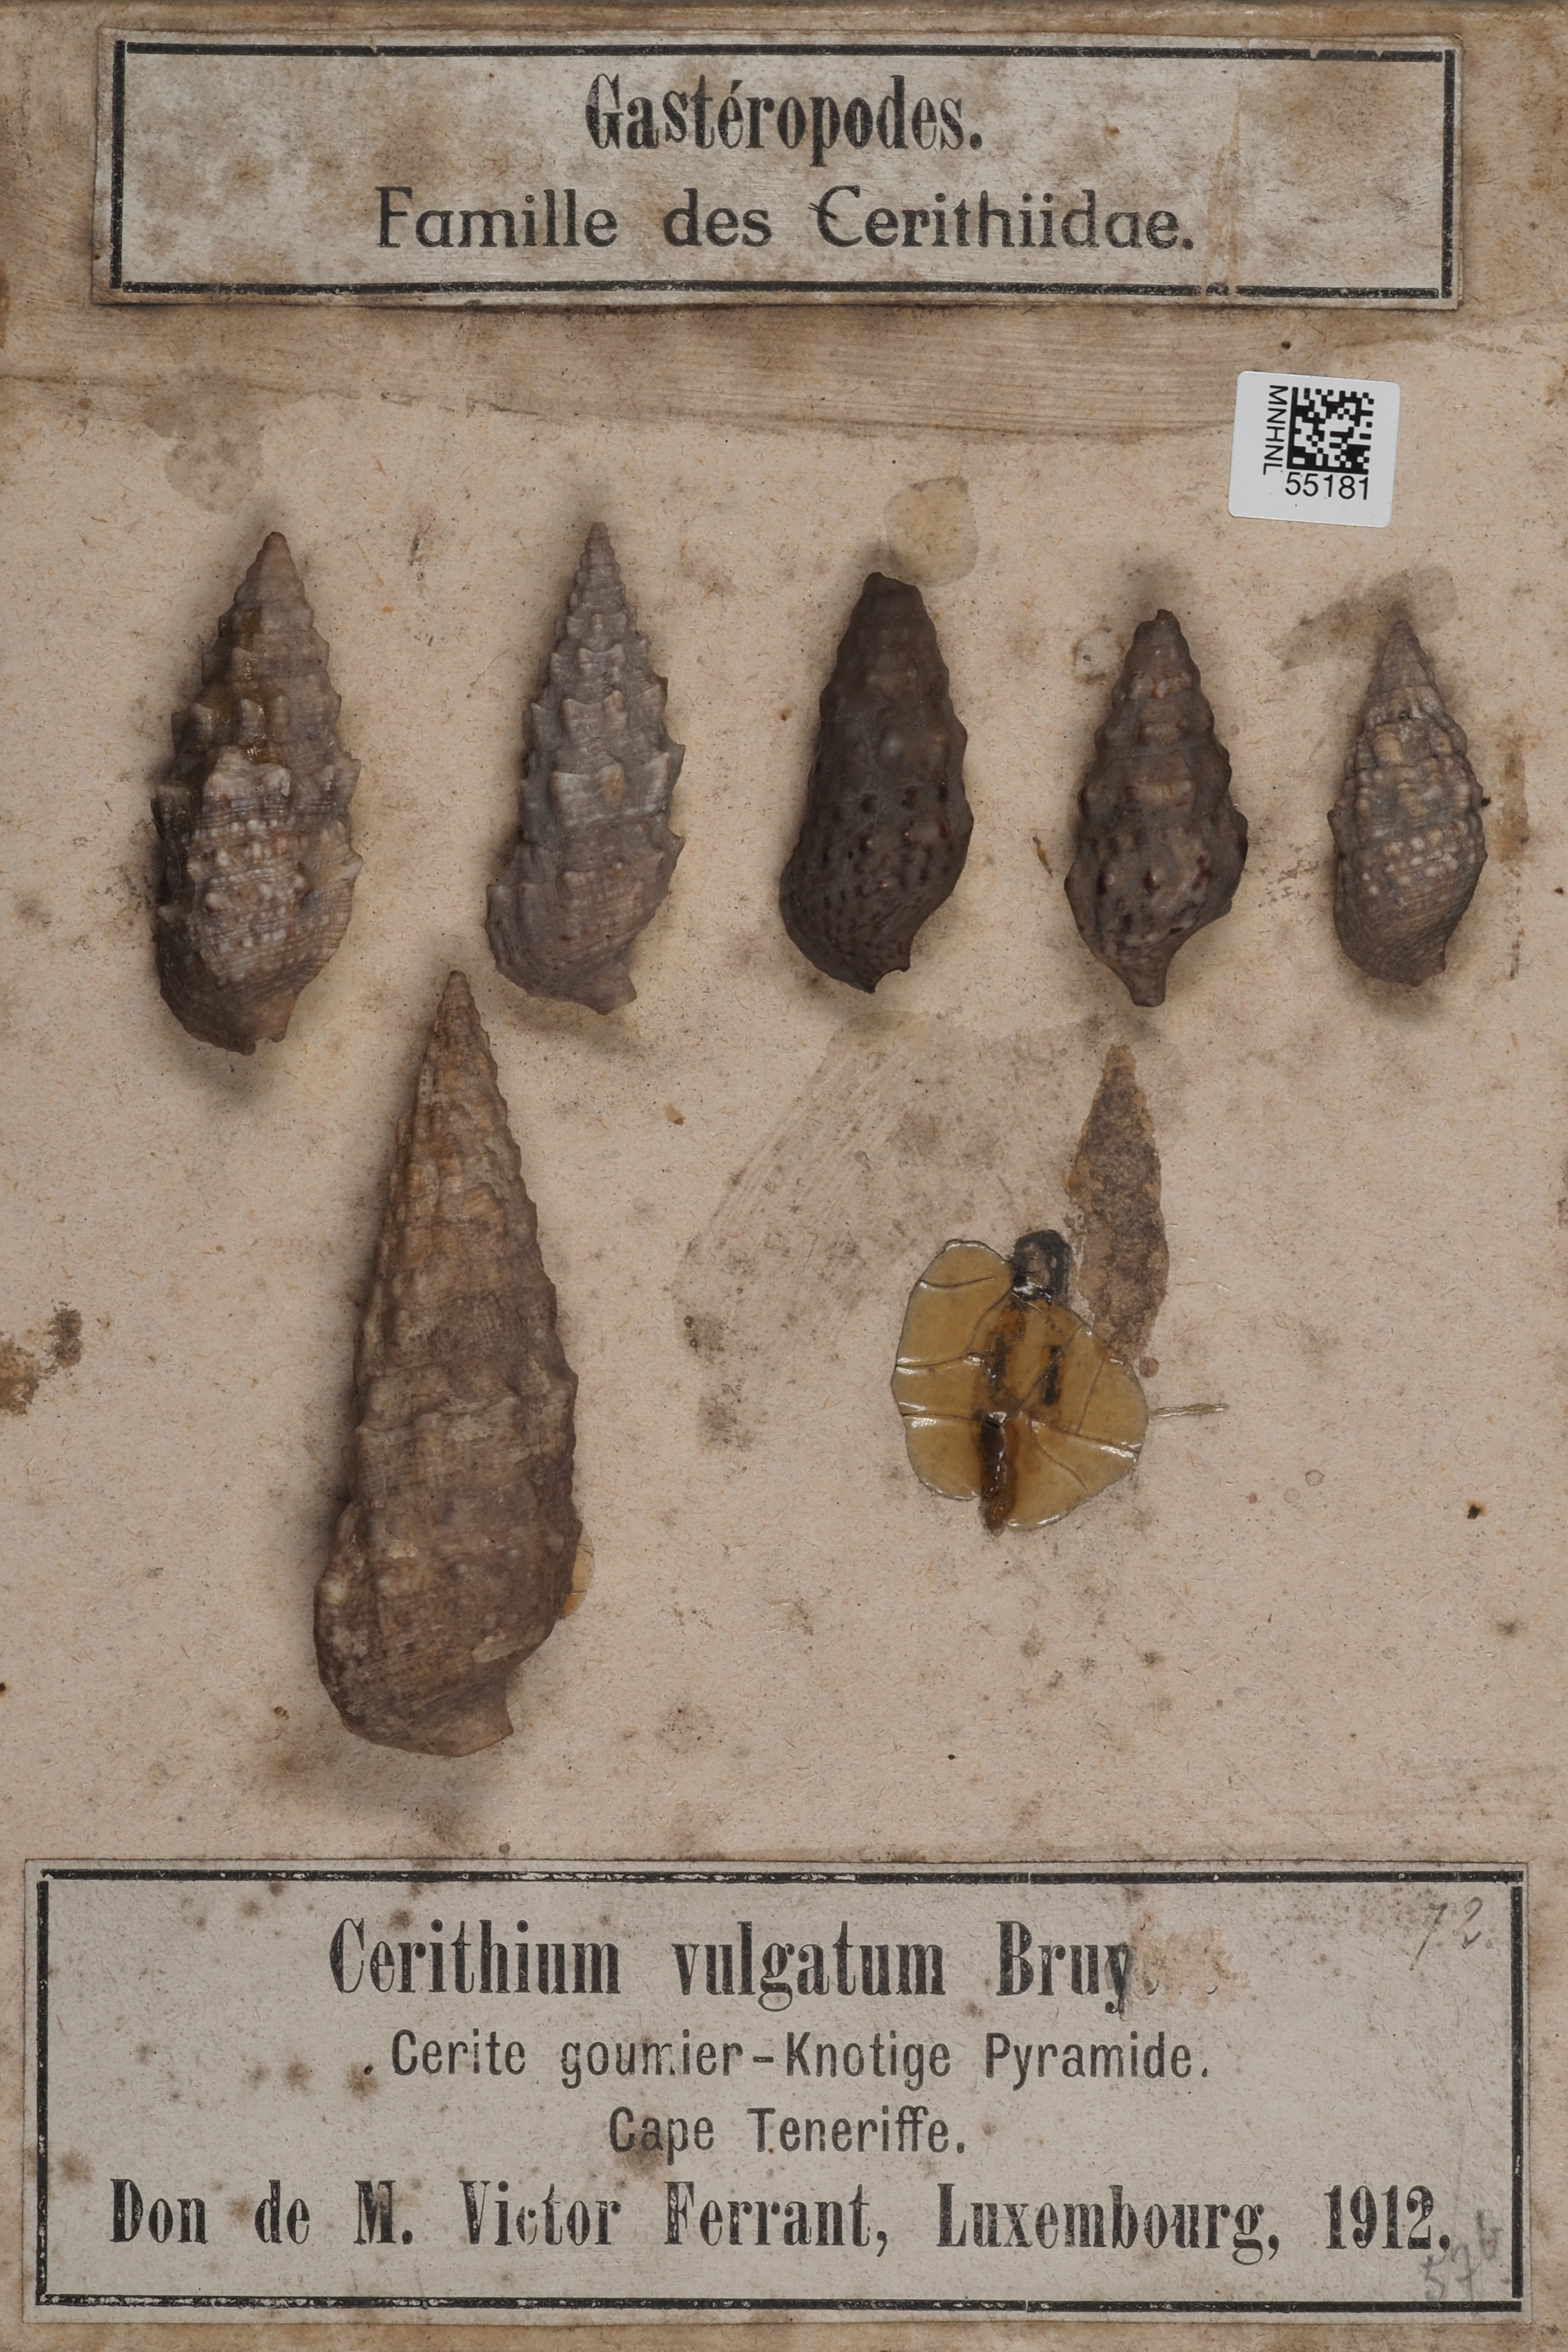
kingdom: Animalia
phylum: Mollusca
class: Gastropoda
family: Cerithiidae
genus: Cerithium
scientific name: Cerithium vulgatum
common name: European cerith
